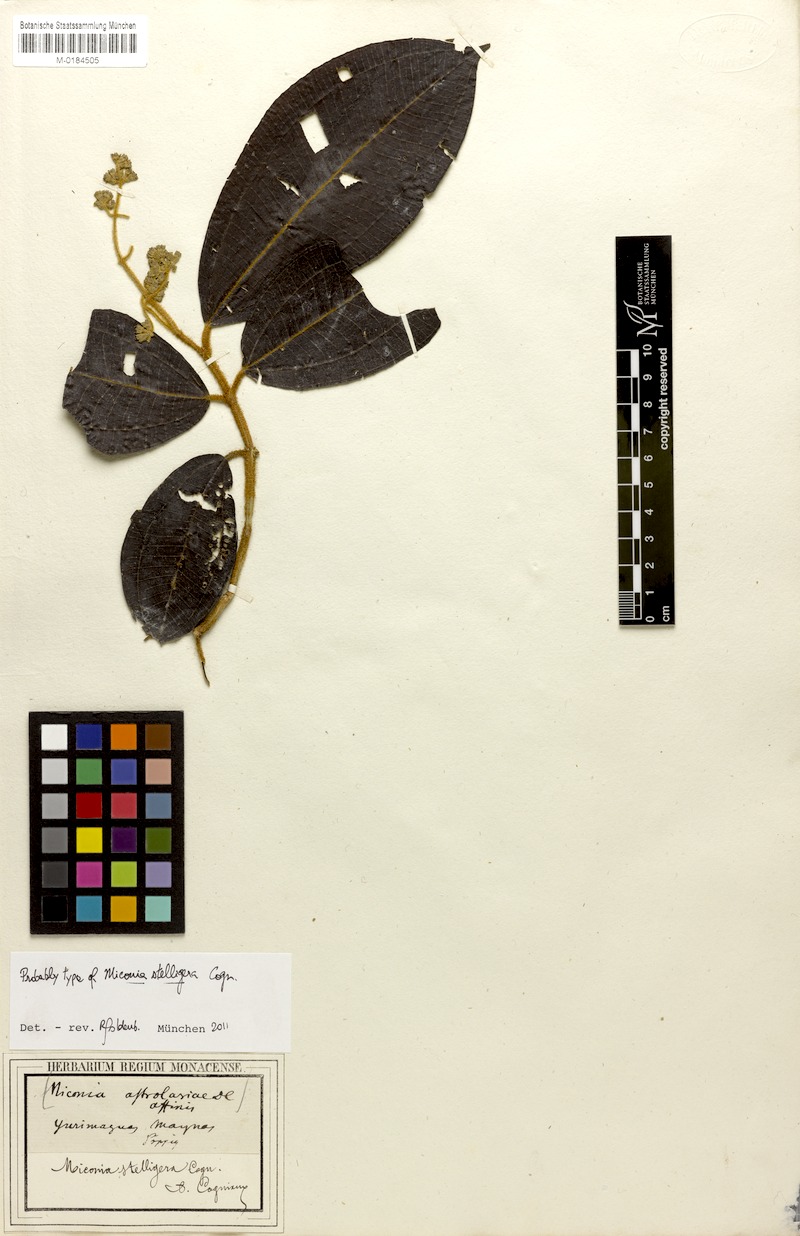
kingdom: Plantae
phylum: Tracheophyta
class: Magnoliopsida
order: Myrtales
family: Melastomataceae
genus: Miconia
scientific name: Miconia stelligera
